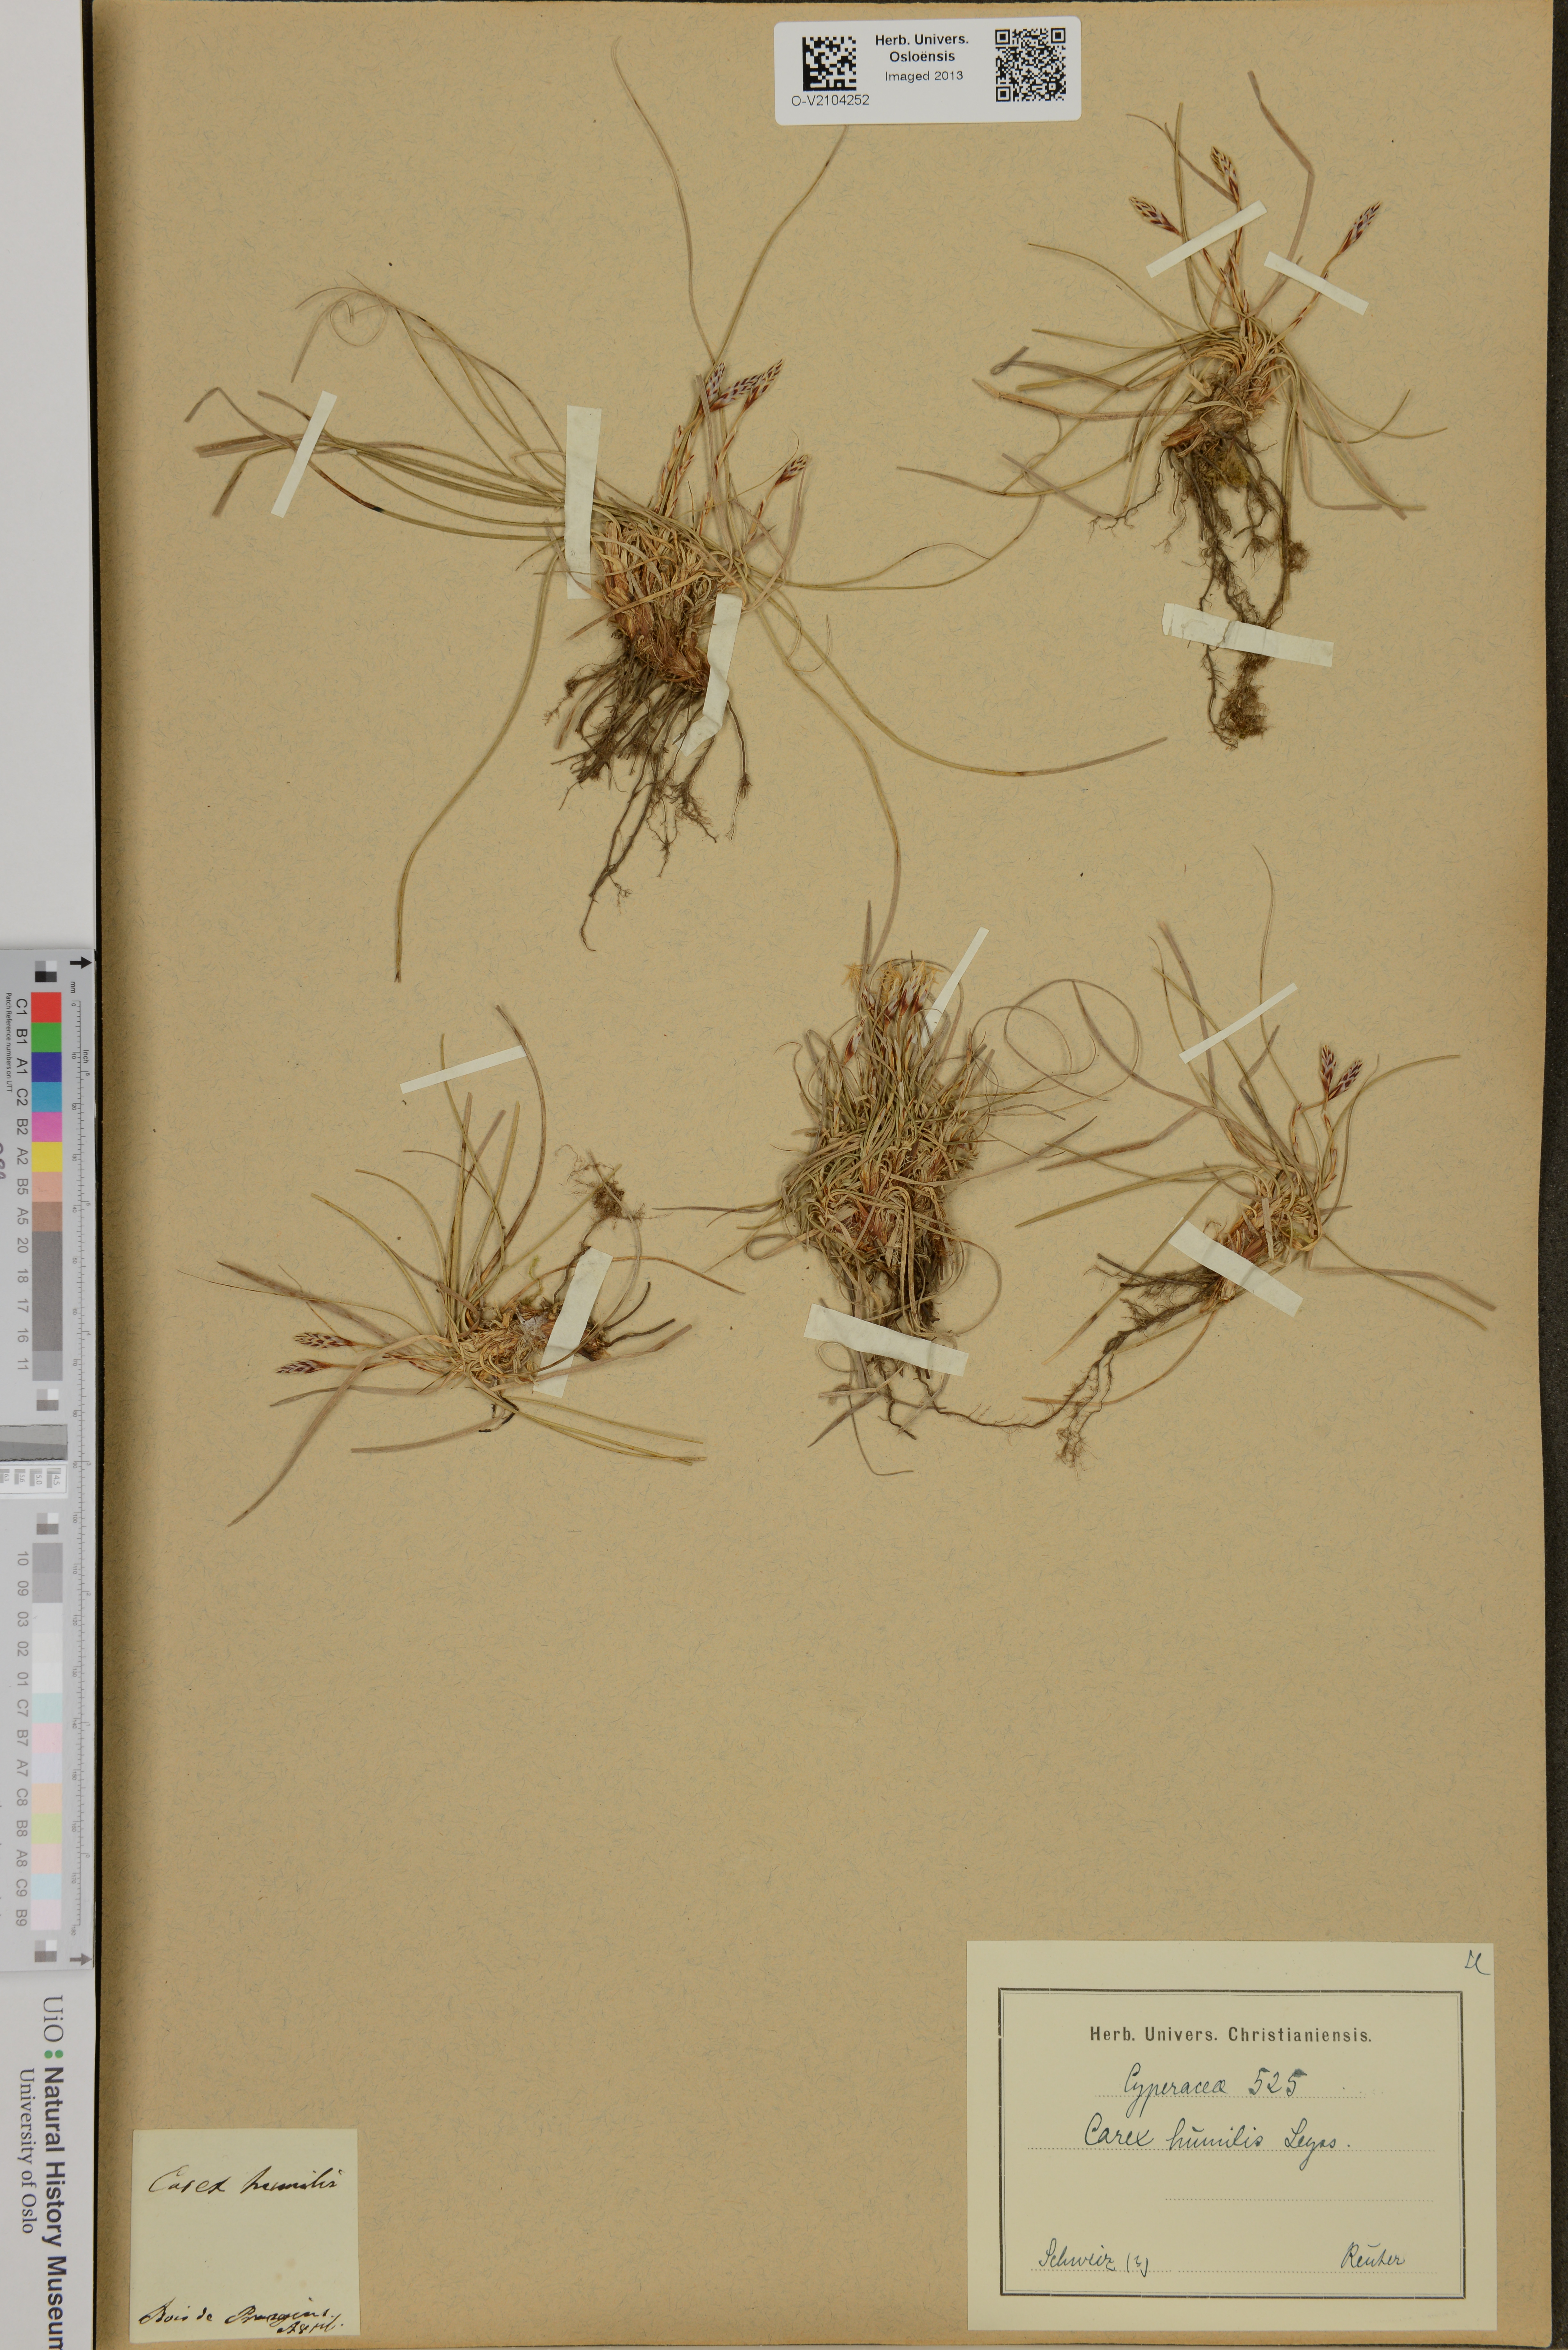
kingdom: Plantae
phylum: Tracheophyta
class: Liliopsida
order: Poales
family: Cyperaceae
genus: Carex
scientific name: Carex humilis
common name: Dwarf sedge
